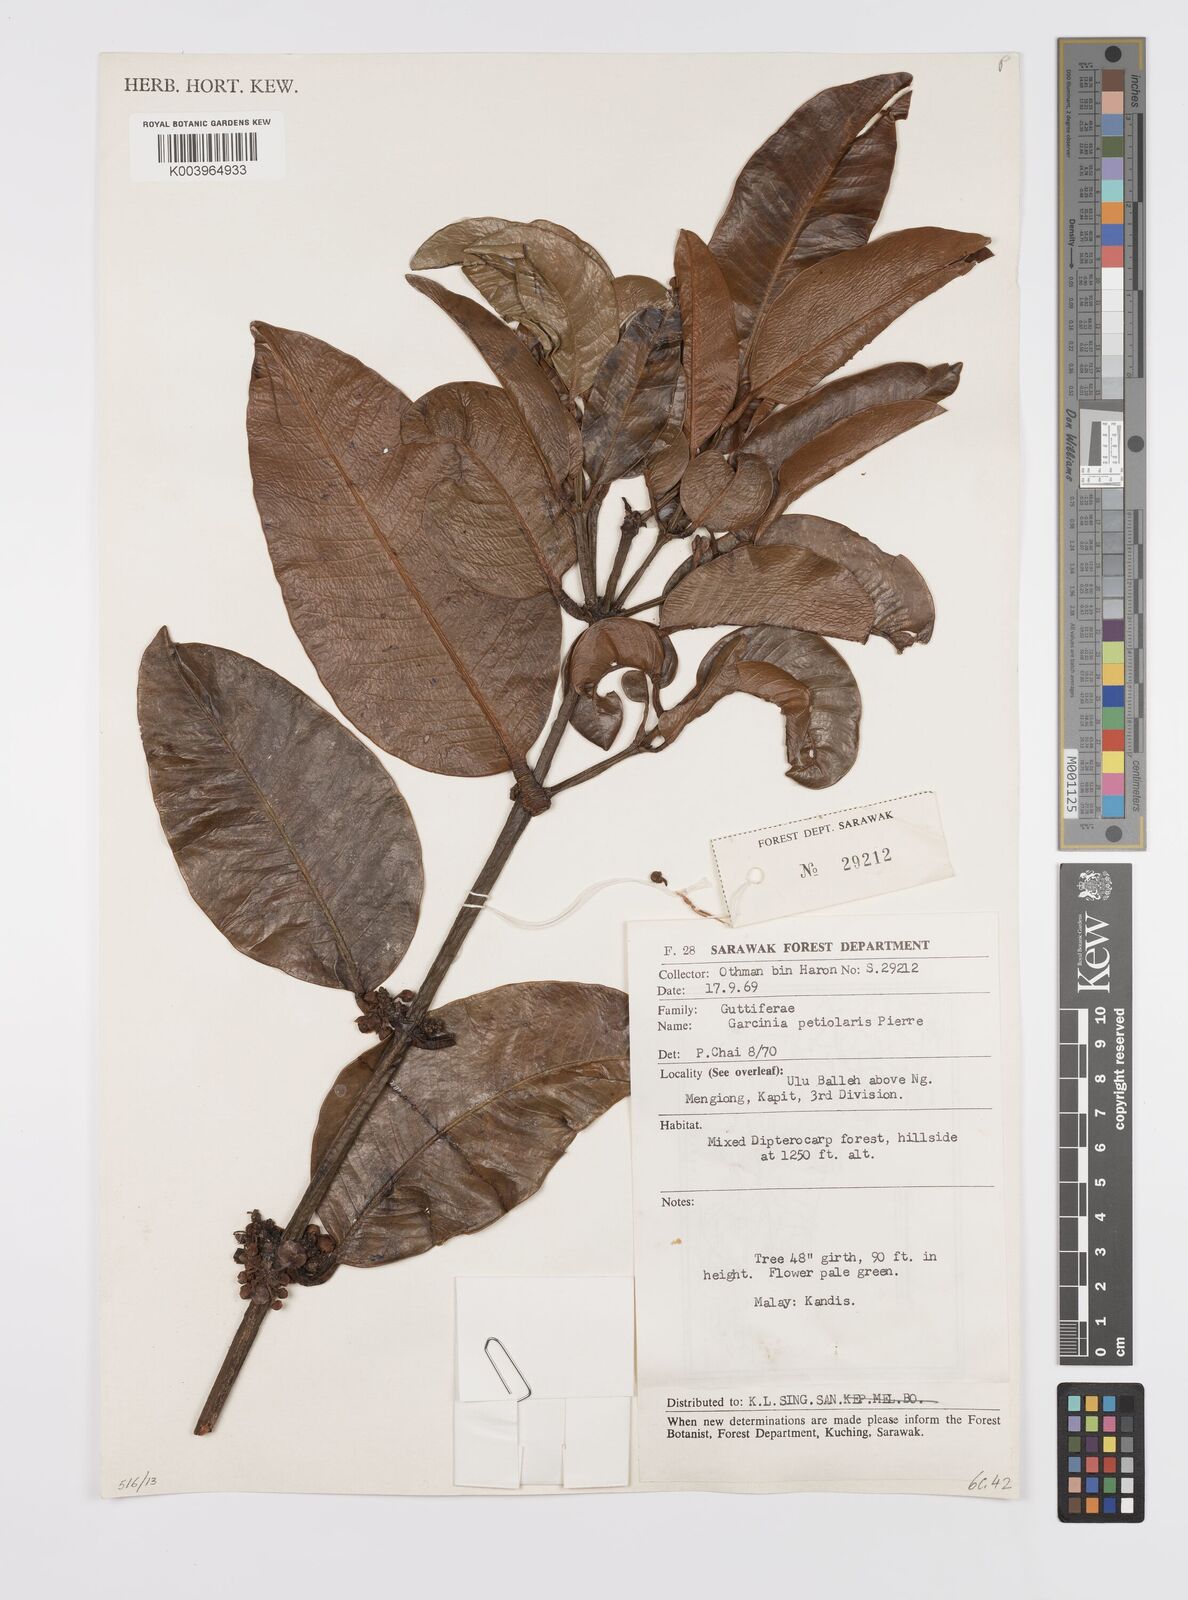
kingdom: Plantae
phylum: Tracheophyta
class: Magnoliopsida
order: Malpighiales
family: Clusiaceae
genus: Garcinia
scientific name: Garcinia petiolaris
